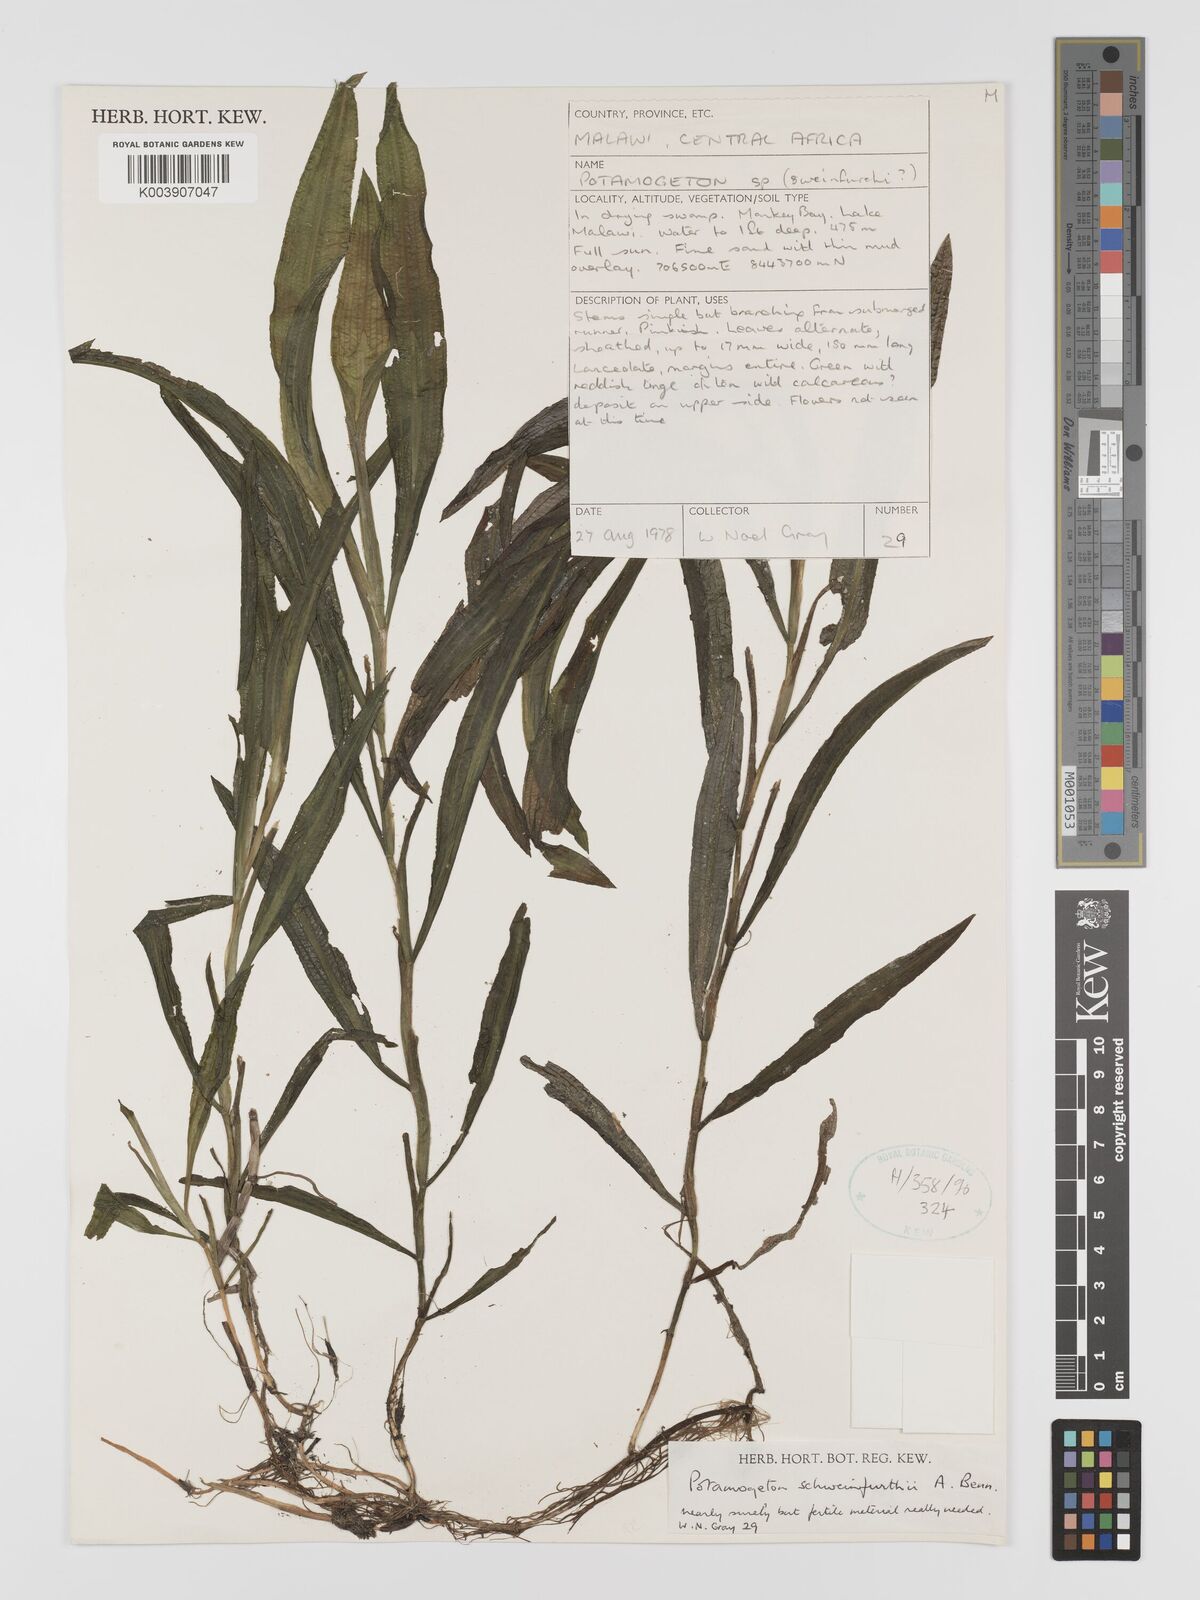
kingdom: Plantae
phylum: Tracheophyta
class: Liliopsida
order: Alismatales
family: Potamogetonaceae
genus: Potamogeton
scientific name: Potamogeton schweinfurthii
